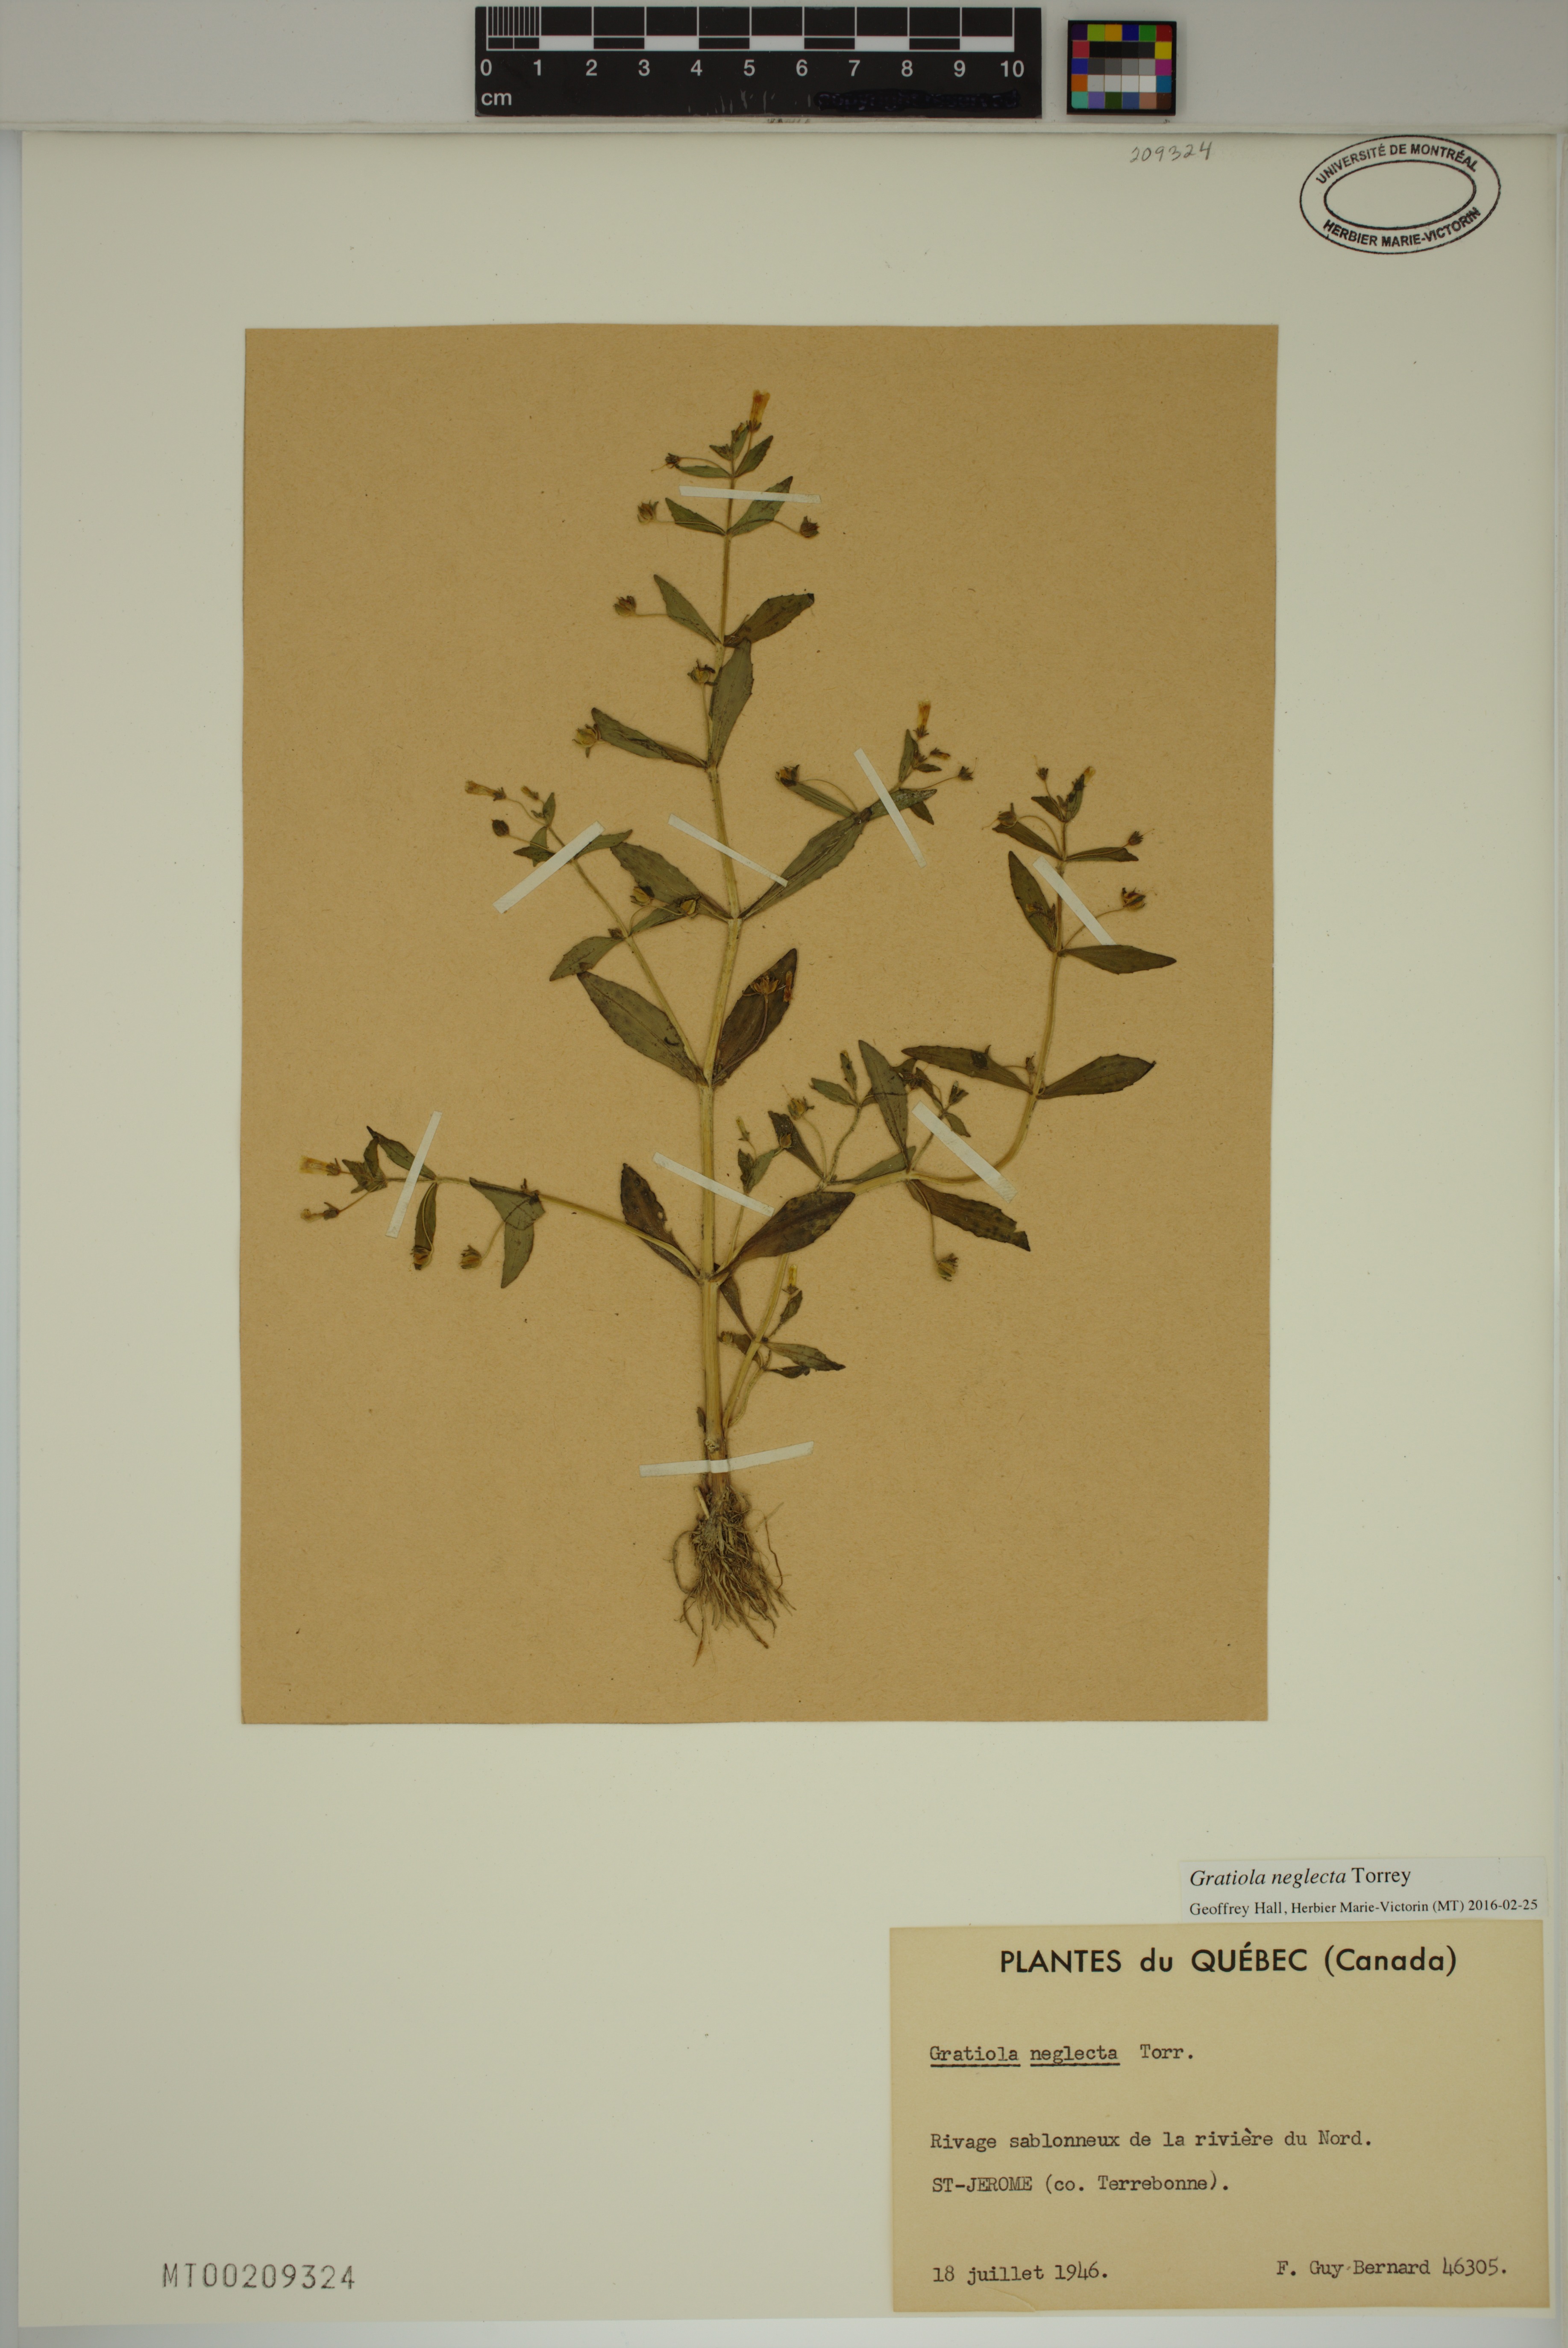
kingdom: Plantae
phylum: Tracheophyta
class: Magnoliopsida
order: Lamiales
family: Plantaginaceae
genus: Gratiola
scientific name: Gratiola neglecta
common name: American hedge-hyssop
